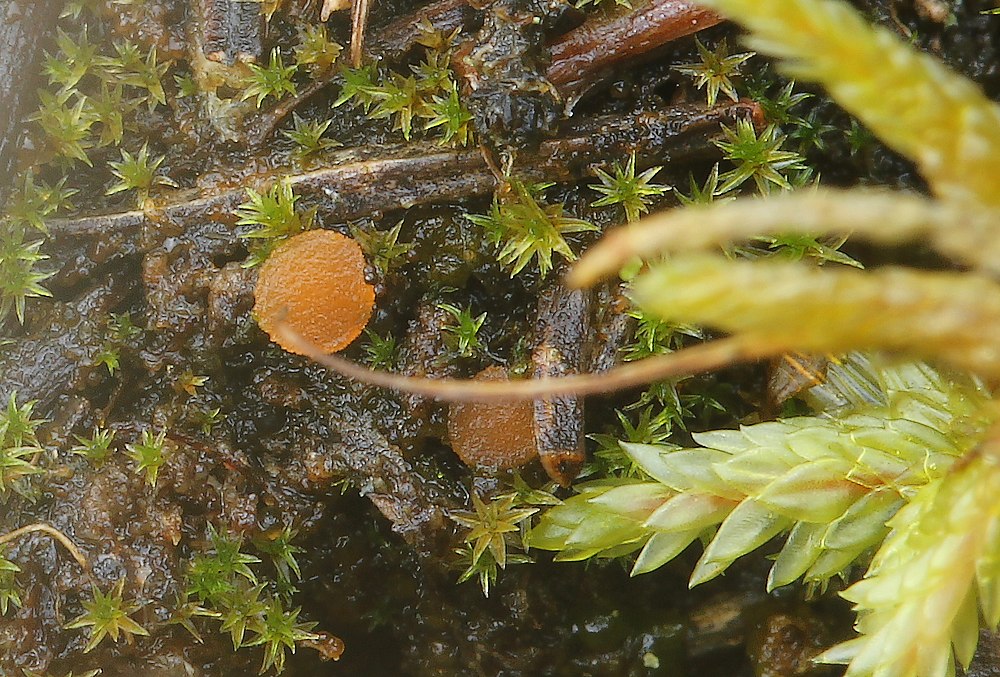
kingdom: Fungi
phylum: Ascomycota
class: Pezizomycetes
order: Pezizales
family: Pyronemataceae
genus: Octospora
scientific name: Octospora rustica
